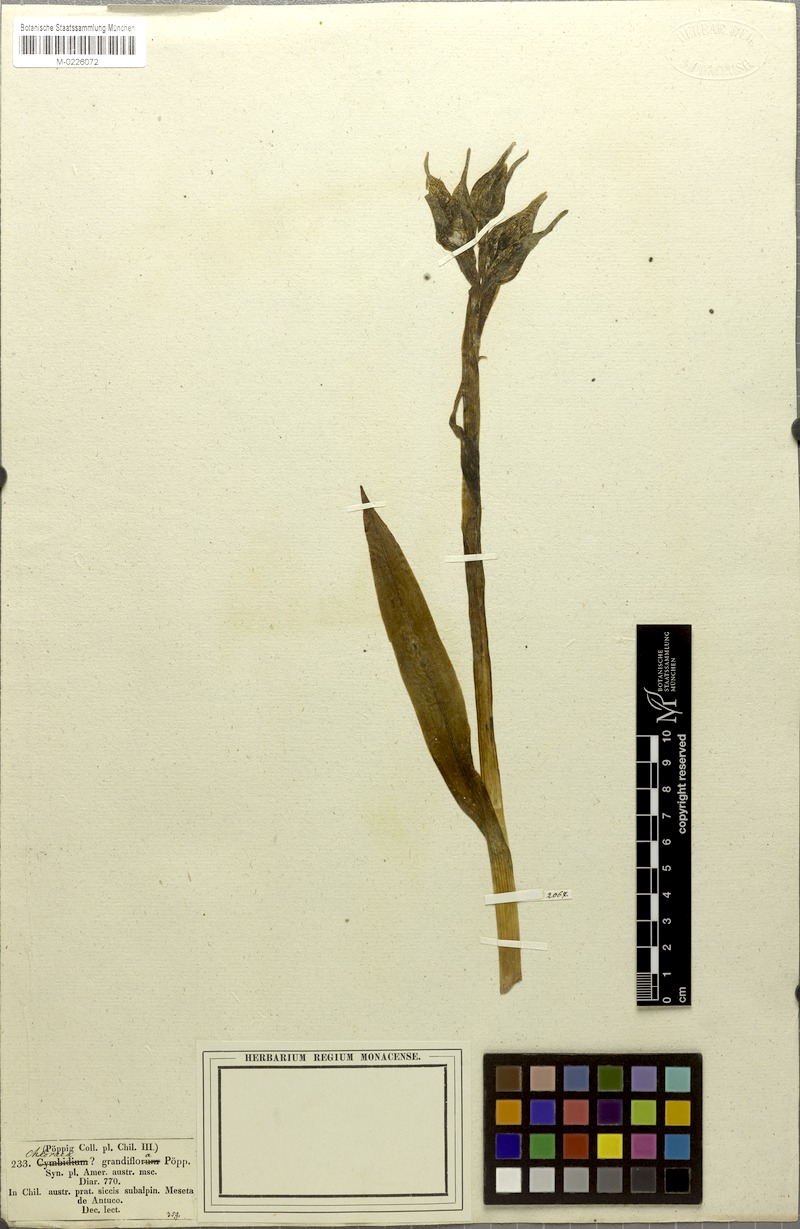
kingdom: Plantae
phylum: Tracheophyta
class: Liliopsida
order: Asparagales
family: Orchidaceae
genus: Chloraea
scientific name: Chloraea grandiflora
